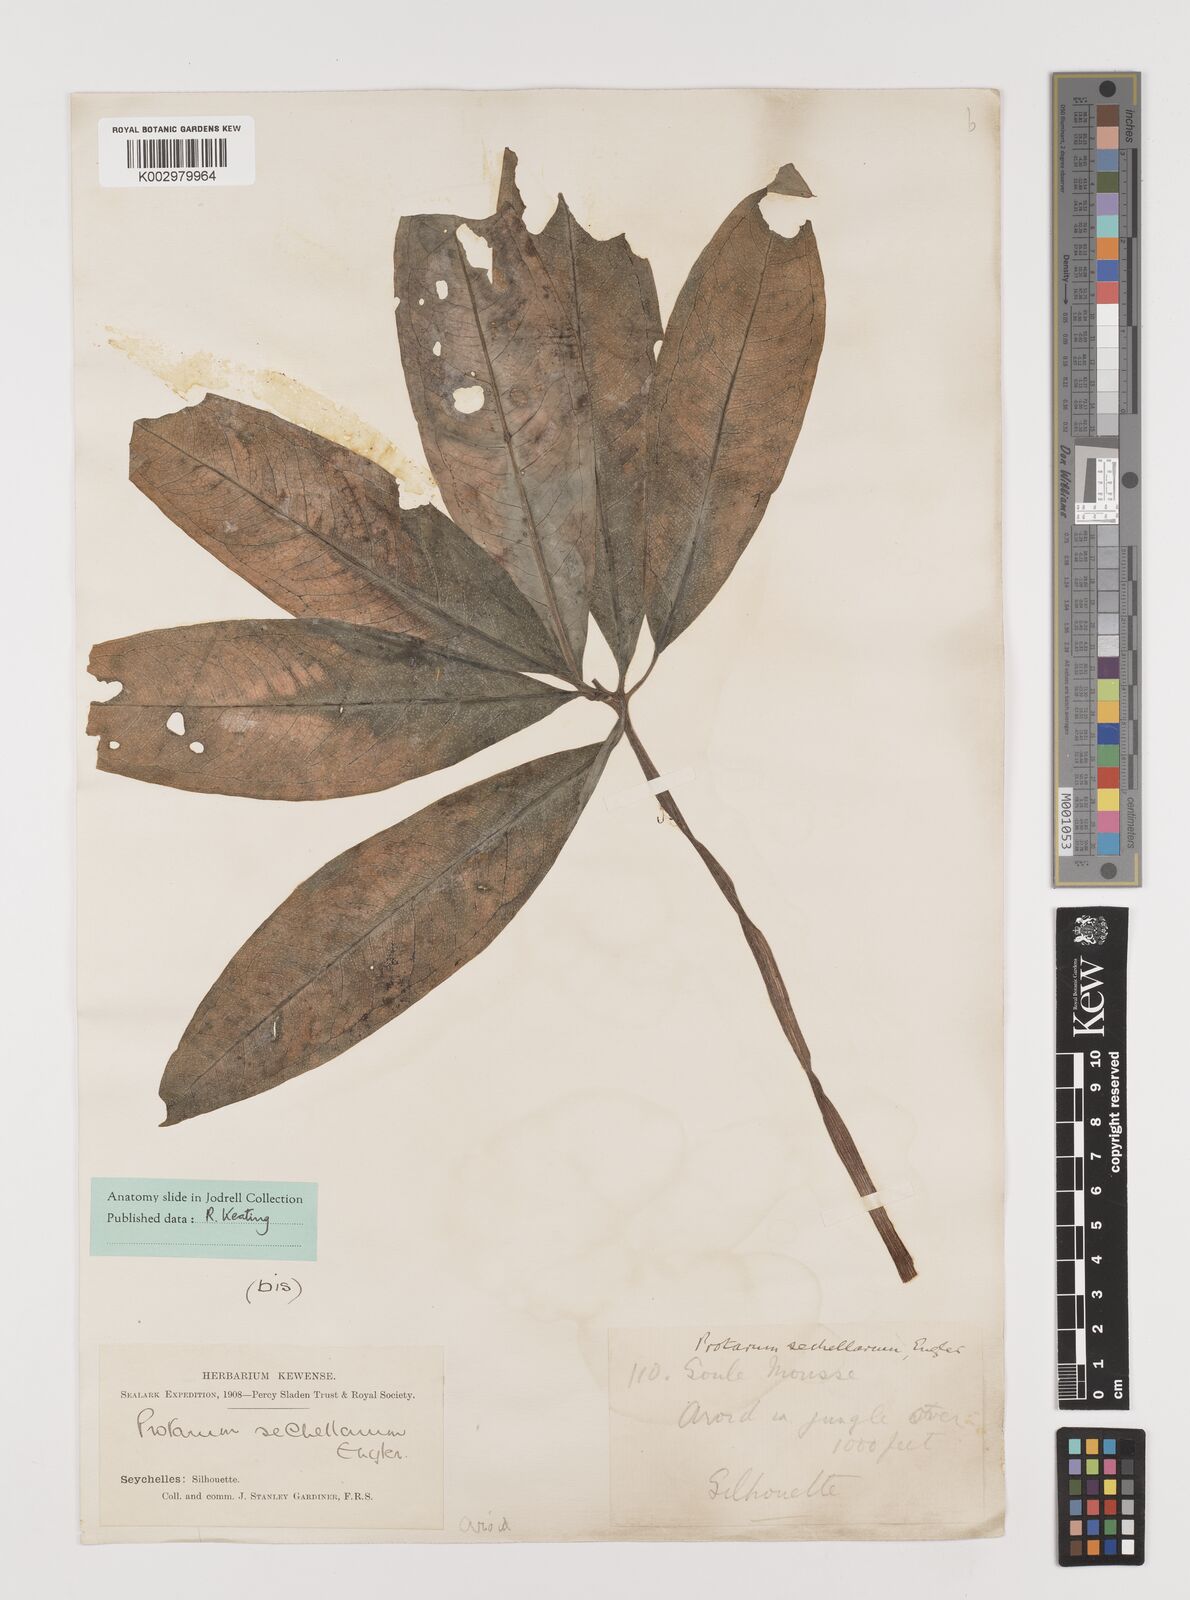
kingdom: Plantae
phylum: Tracheophyta
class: Liliopsida
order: Alismatales
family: Araceae
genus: Protarum
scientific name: Protarum
